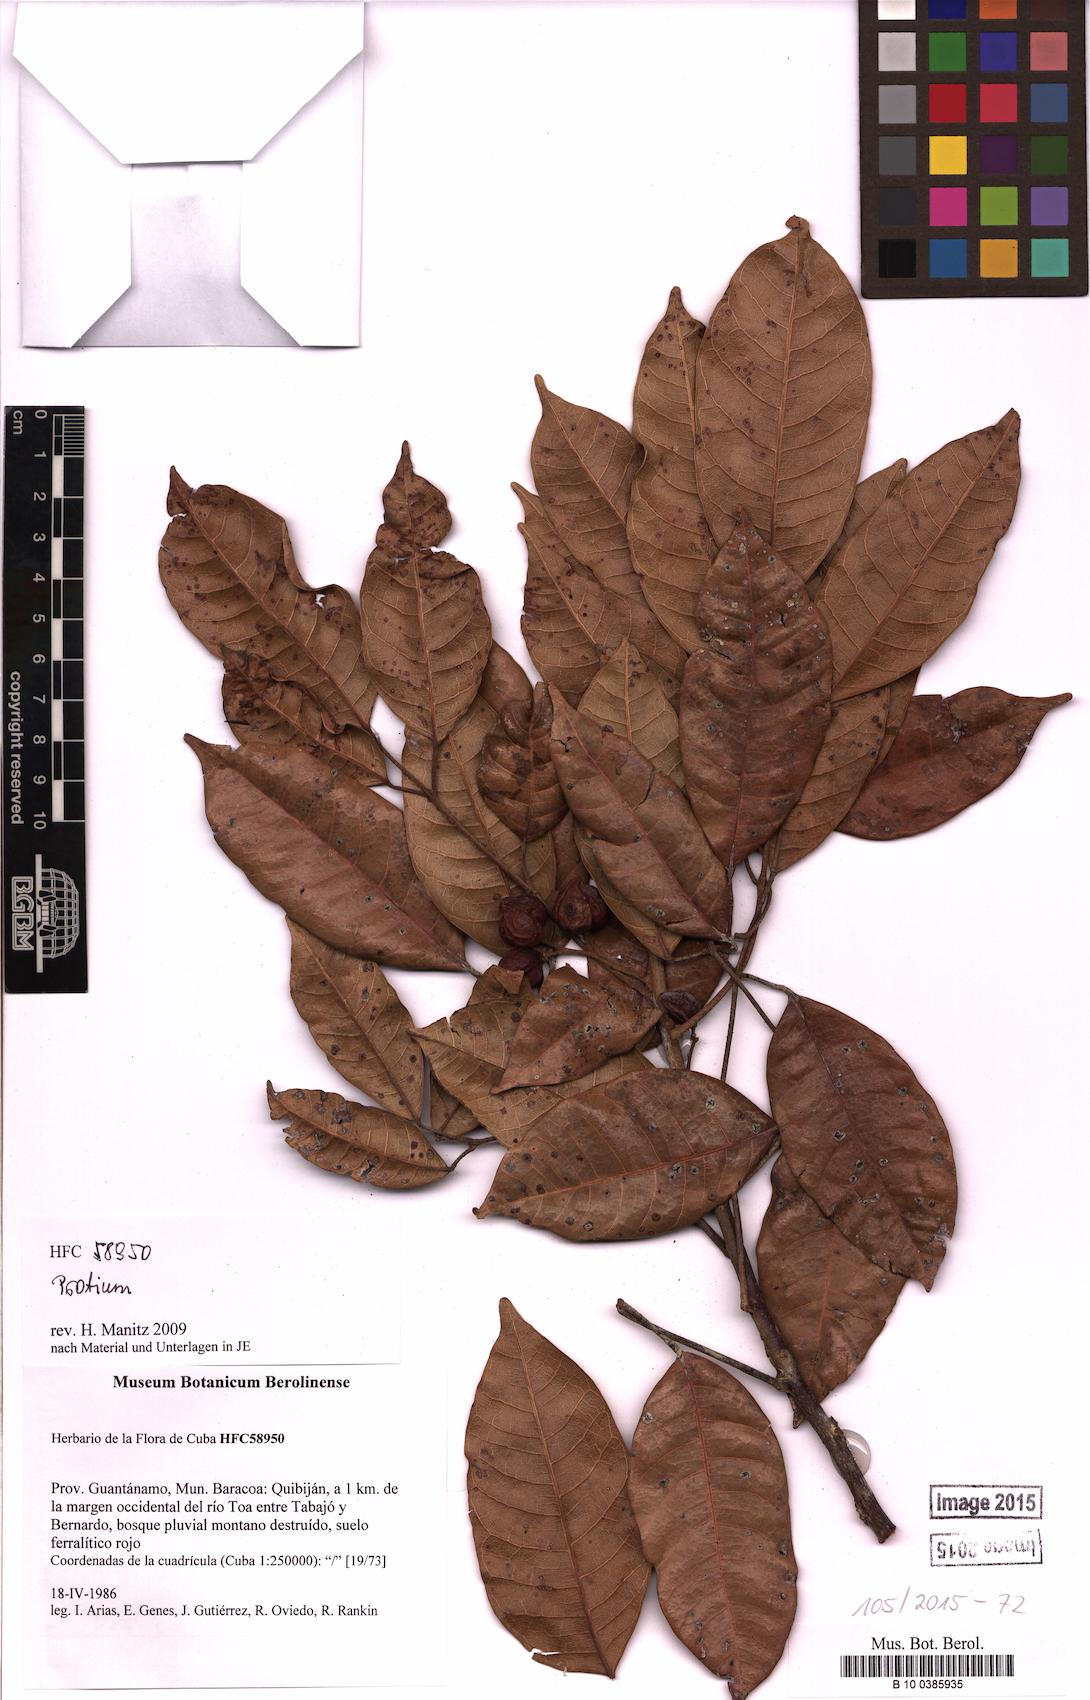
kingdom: Plantae
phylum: Tracheophyta
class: Magnoliopsida
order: Sapindales
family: Burseraceae
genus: Protium
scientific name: Protium
